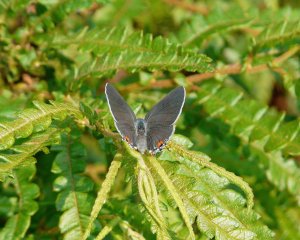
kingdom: Animalia
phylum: Arthropoda
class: Insecta
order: Lepidoptera
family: Lycaenidae
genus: Strymon
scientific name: Strymon melinus
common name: Gray Hairstreak
